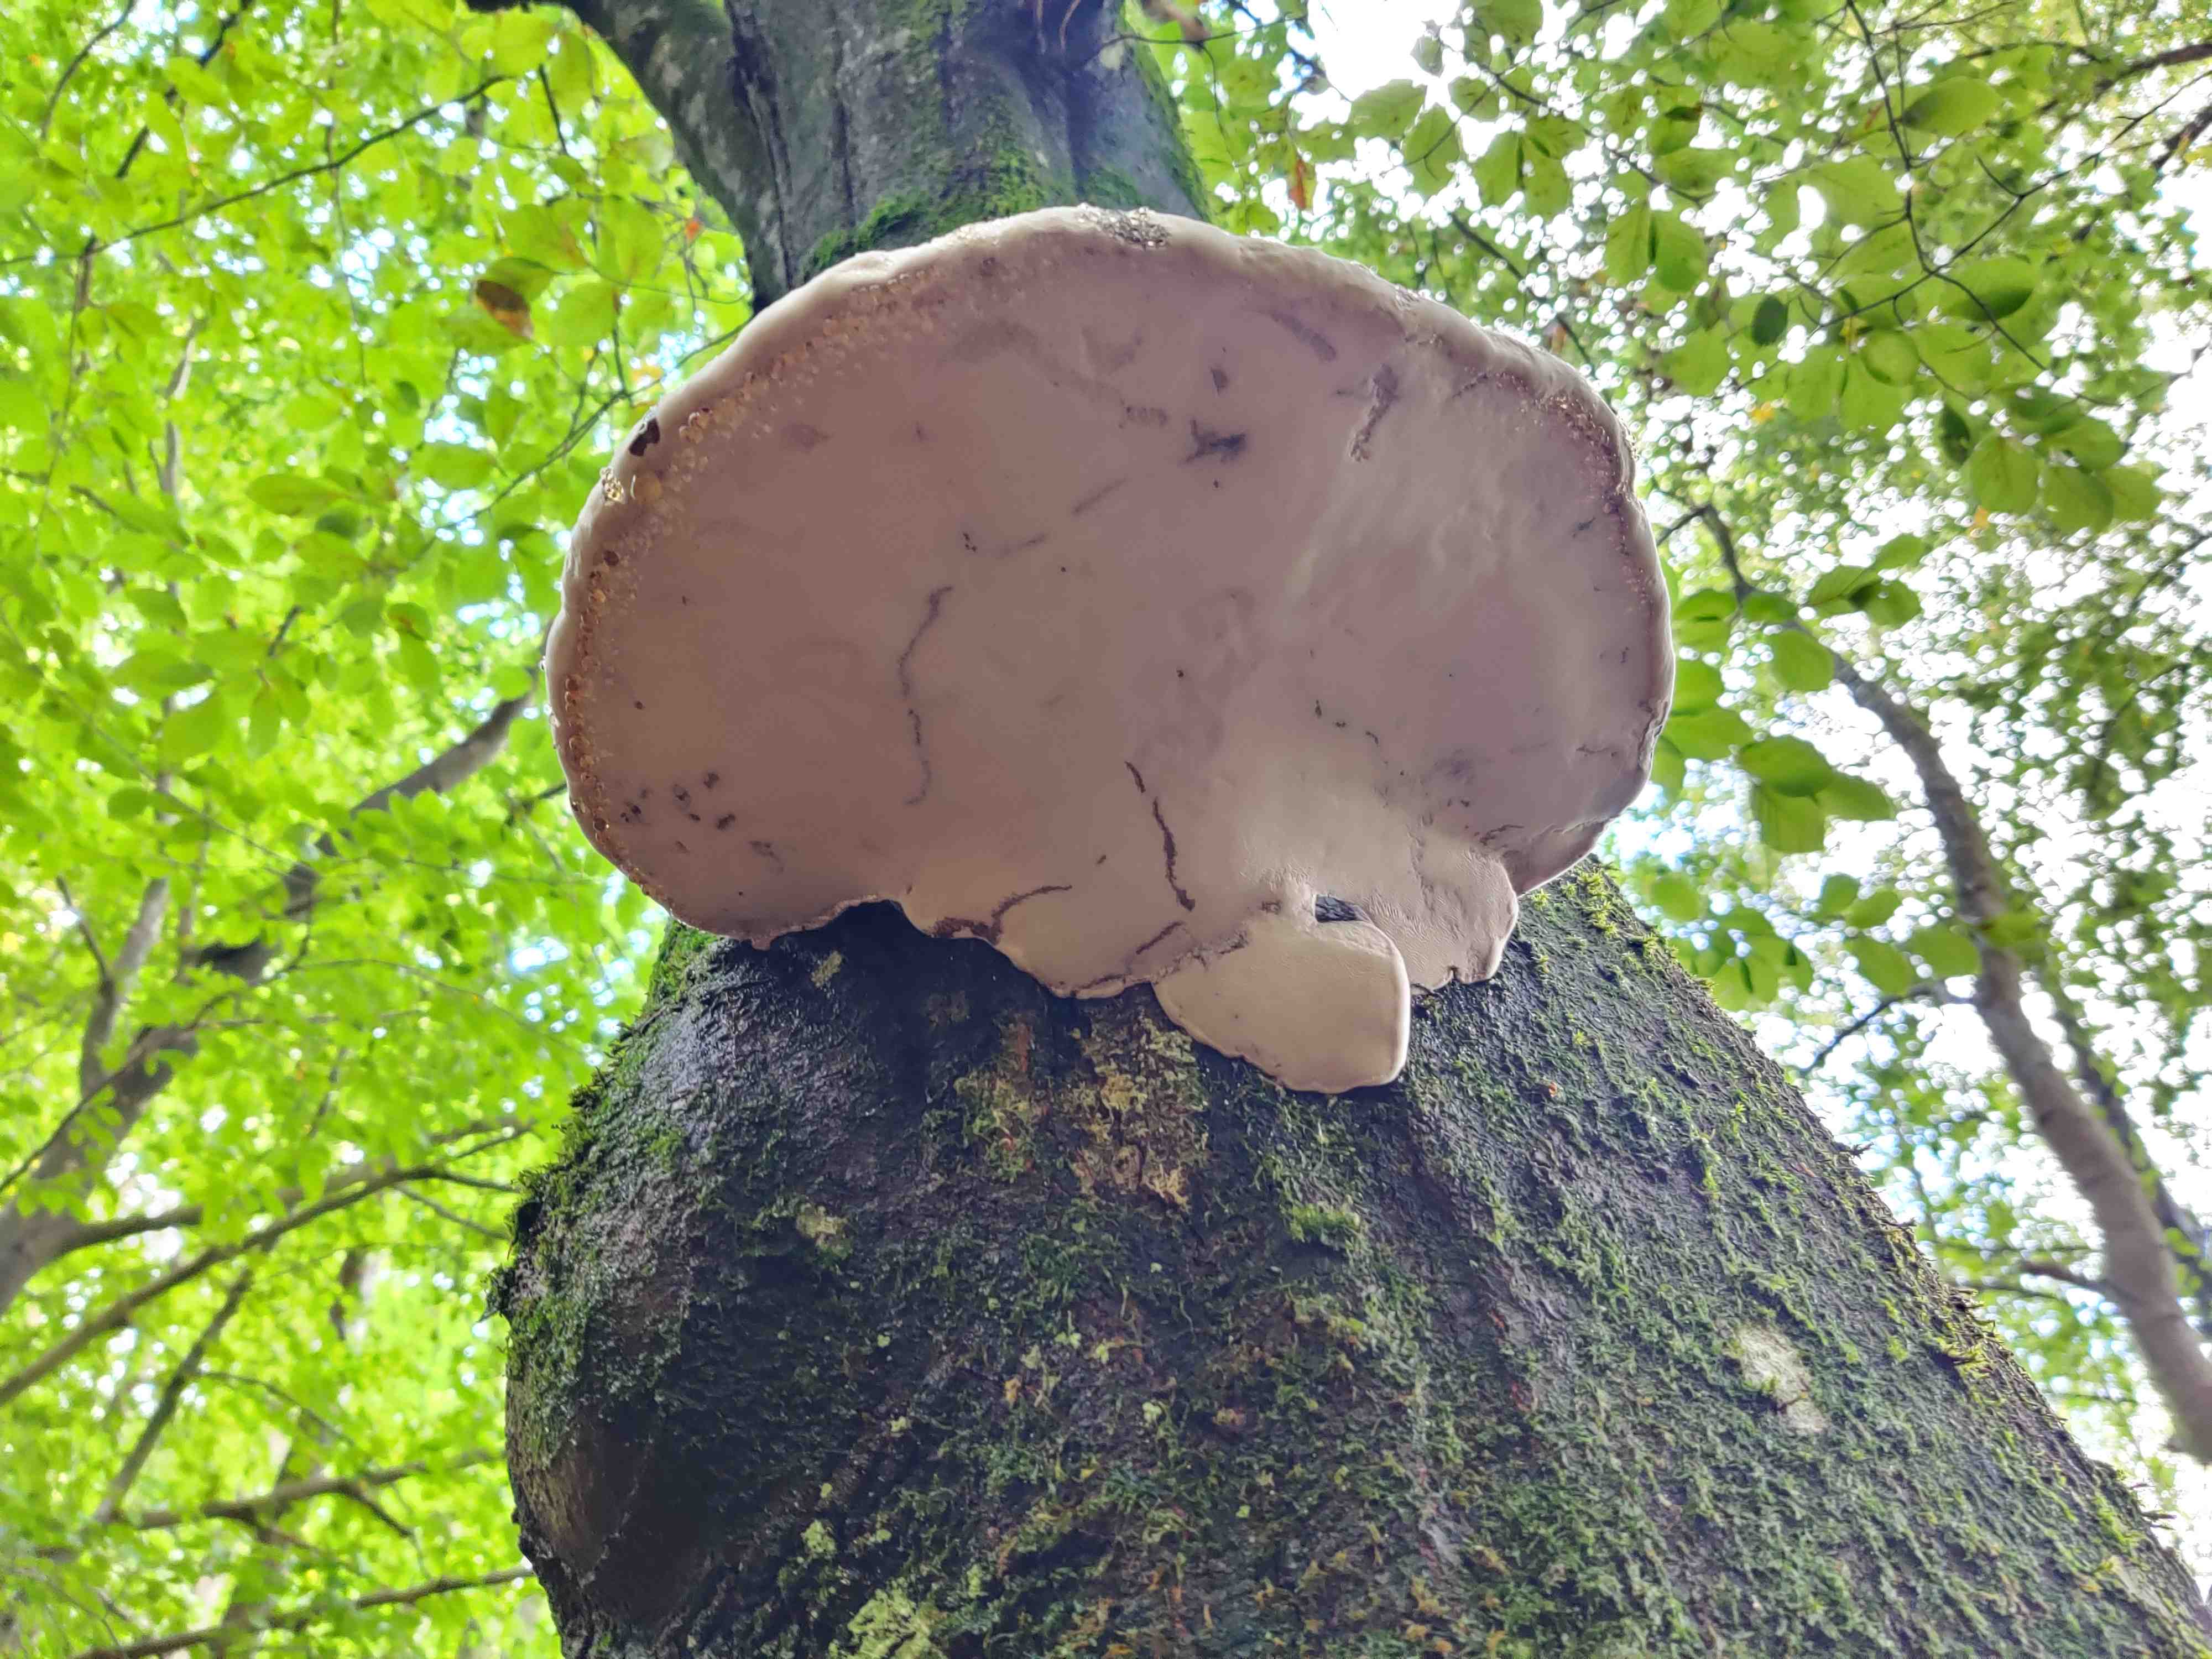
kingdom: Fungi
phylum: Basidiomycota
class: Agaricomycetes
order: Polyporales
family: Polyporaceae
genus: Fomes
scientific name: Fomes fomentarius
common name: tøndersvamp
